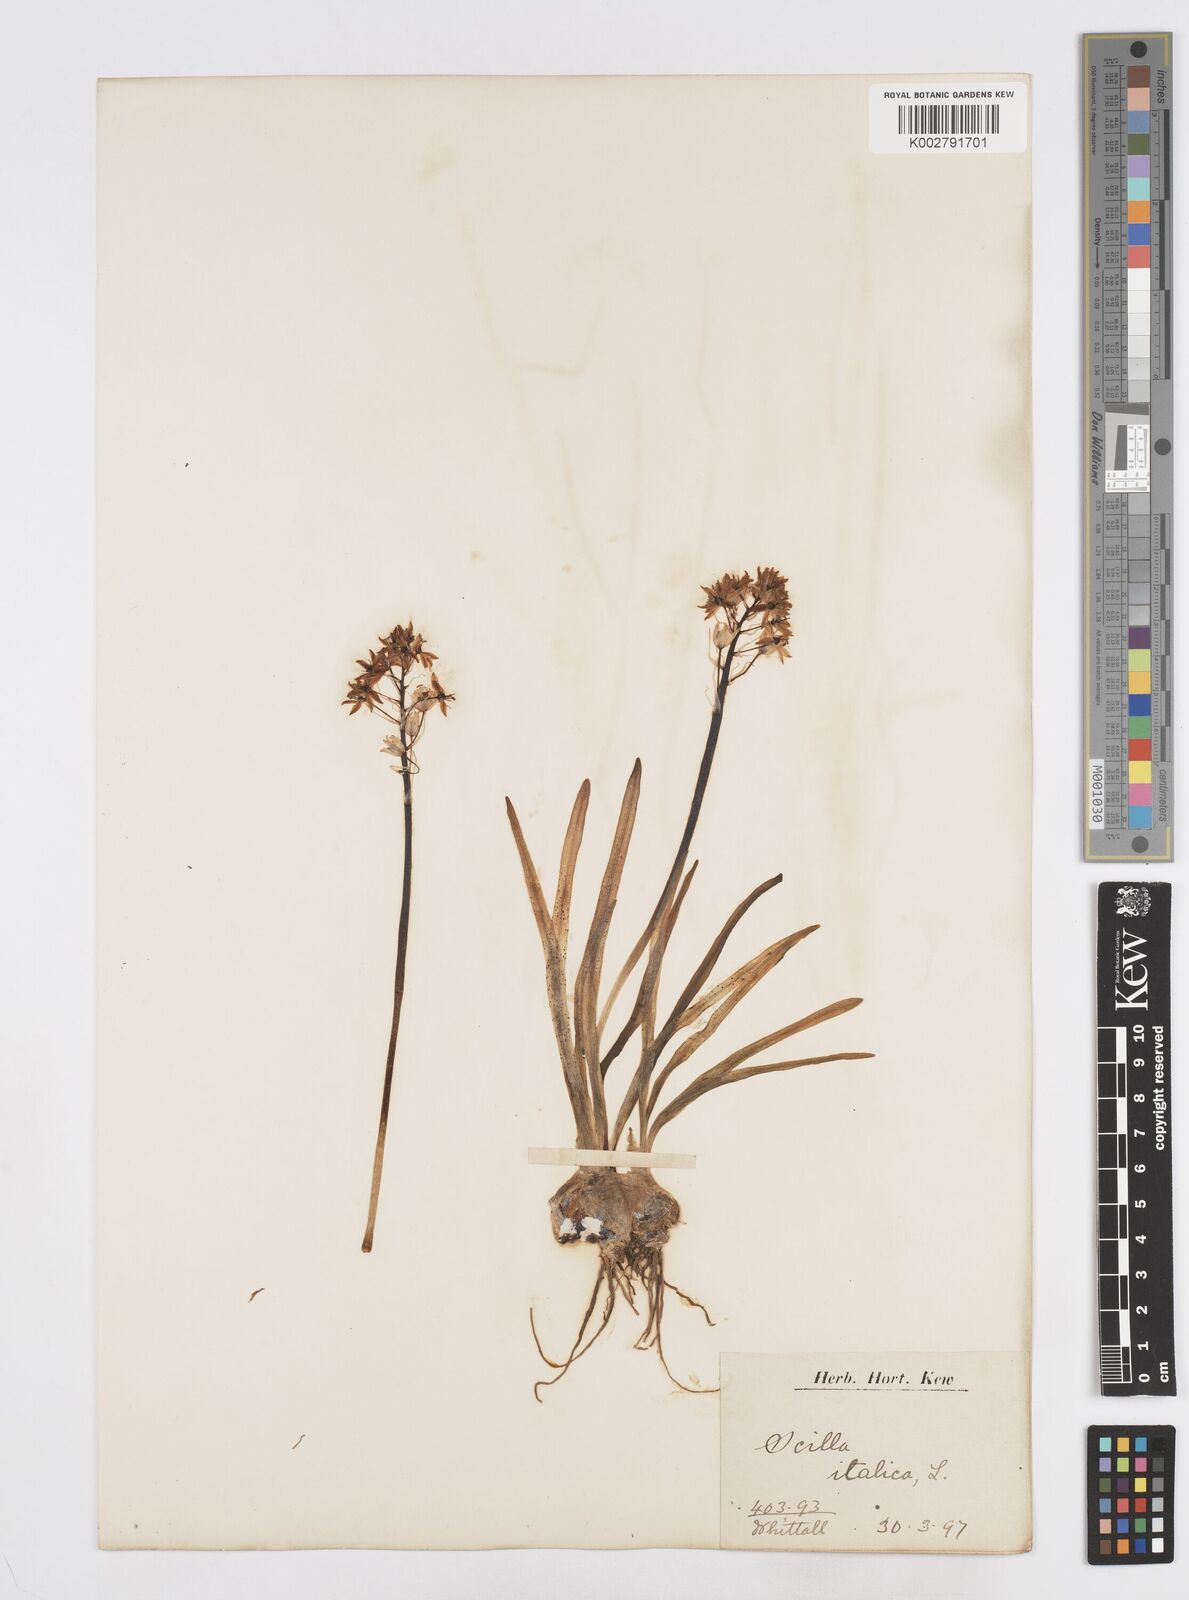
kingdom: Plantae
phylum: Tracheophyta
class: Liliopsida
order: Asparagales
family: Asparagaceae
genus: Hyacinthoides
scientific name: Hyacinthoides italica
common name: Italian bluebell
